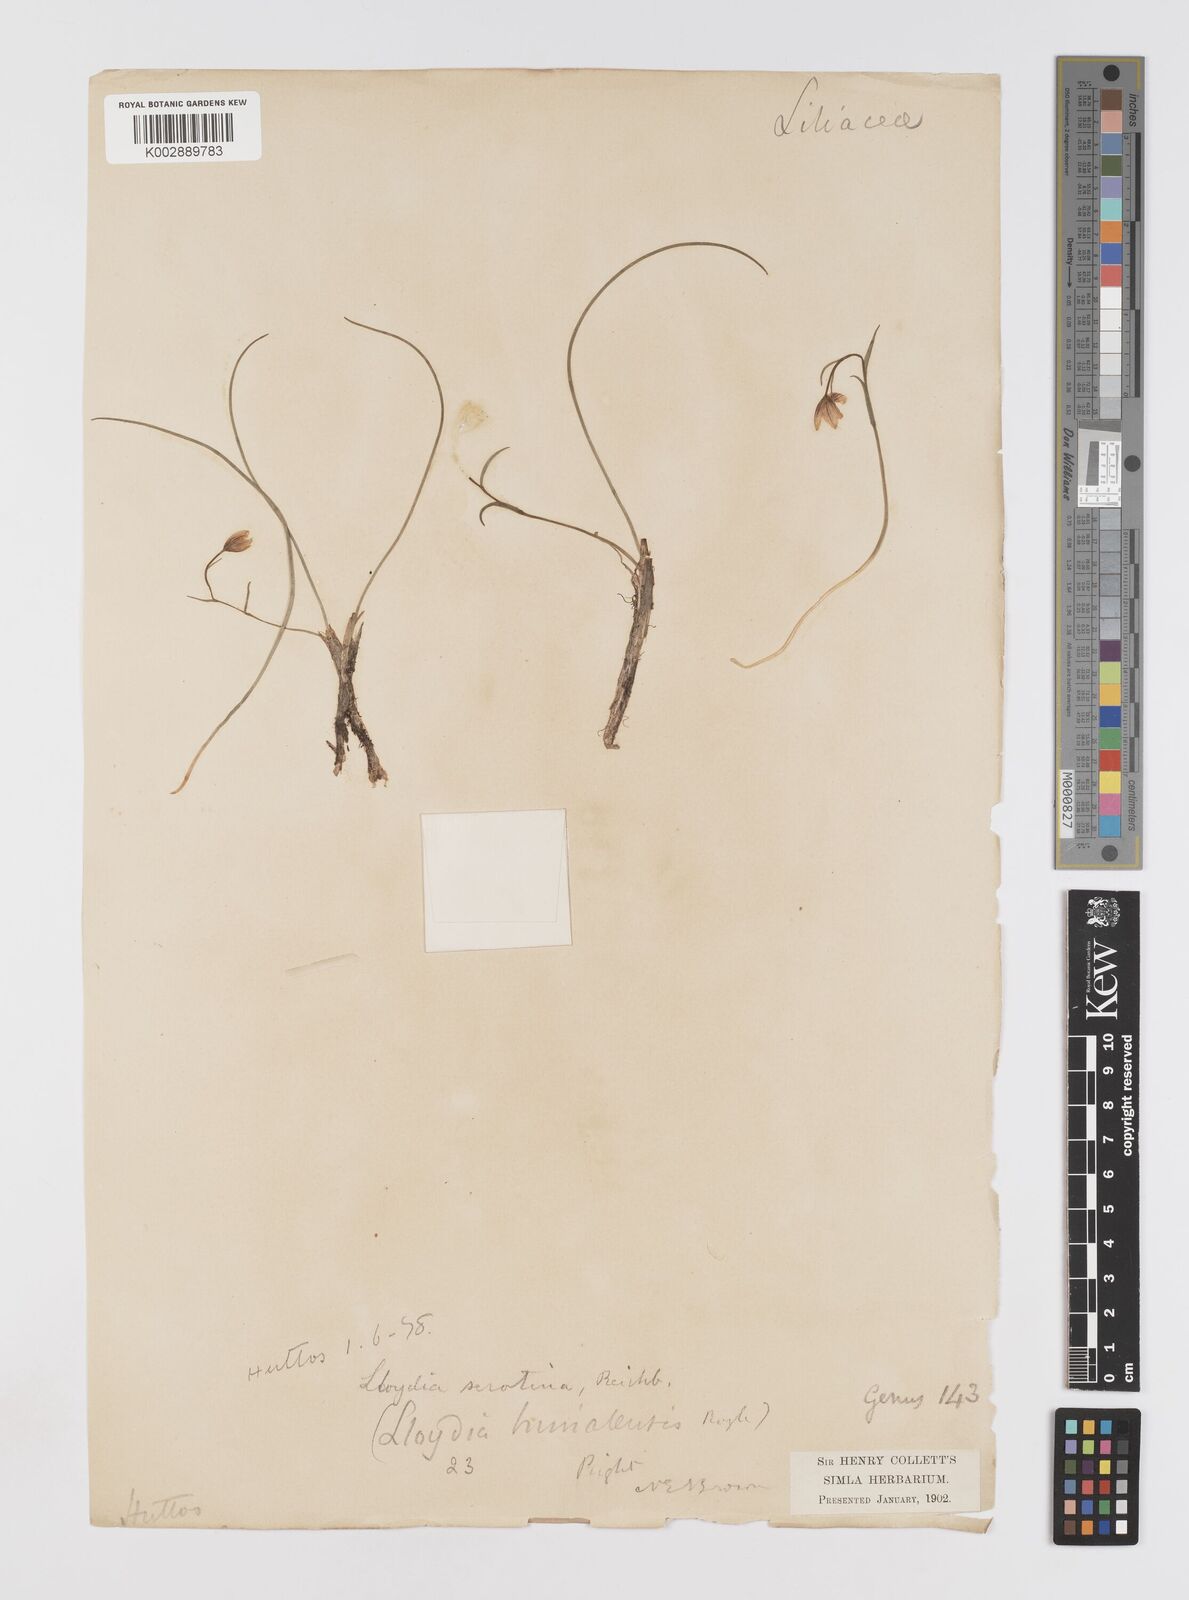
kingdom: Plantae
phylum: Tracheophyta
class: Liliopsida
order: Liliales
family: Liliaceae
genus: Gagea
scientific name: Gagea serotina
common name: Snowdon lily
